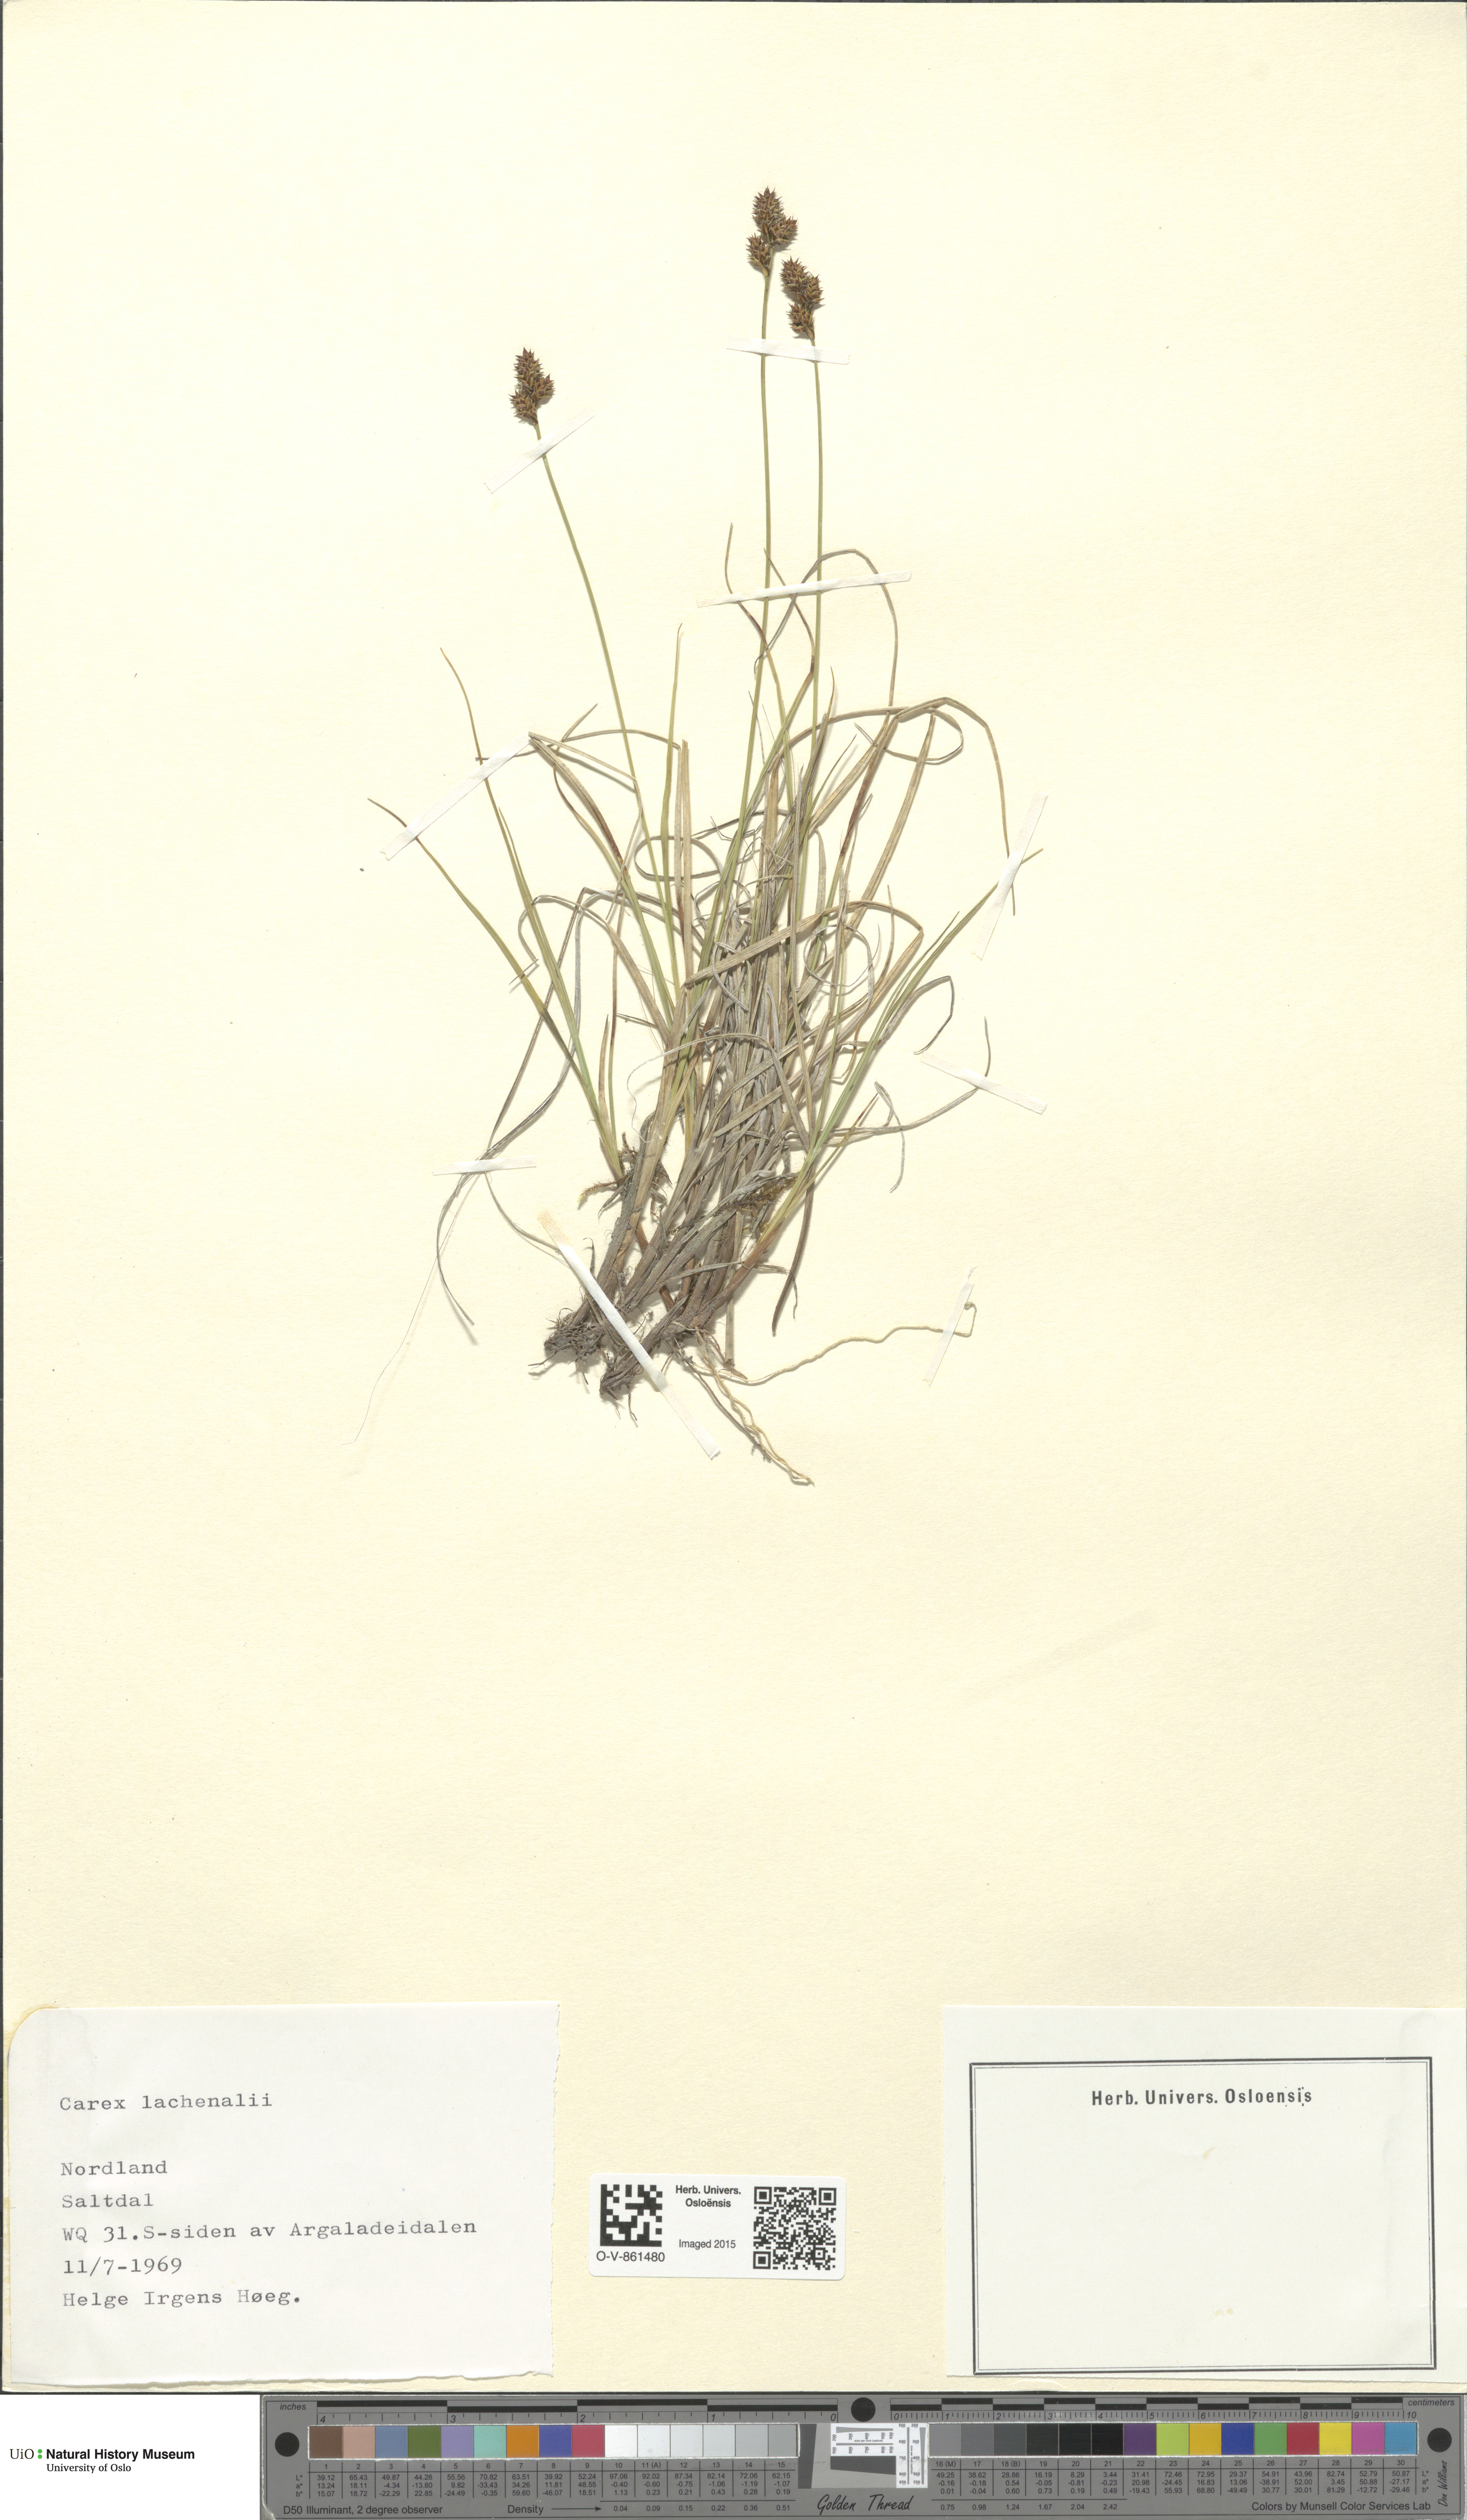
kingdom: Plantae
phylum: Tracheophyta
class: Liliopsida
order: Poales
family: Cyperaceae
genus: Carex
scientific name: Carex lachenalii
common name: Hare's-foot sedge
